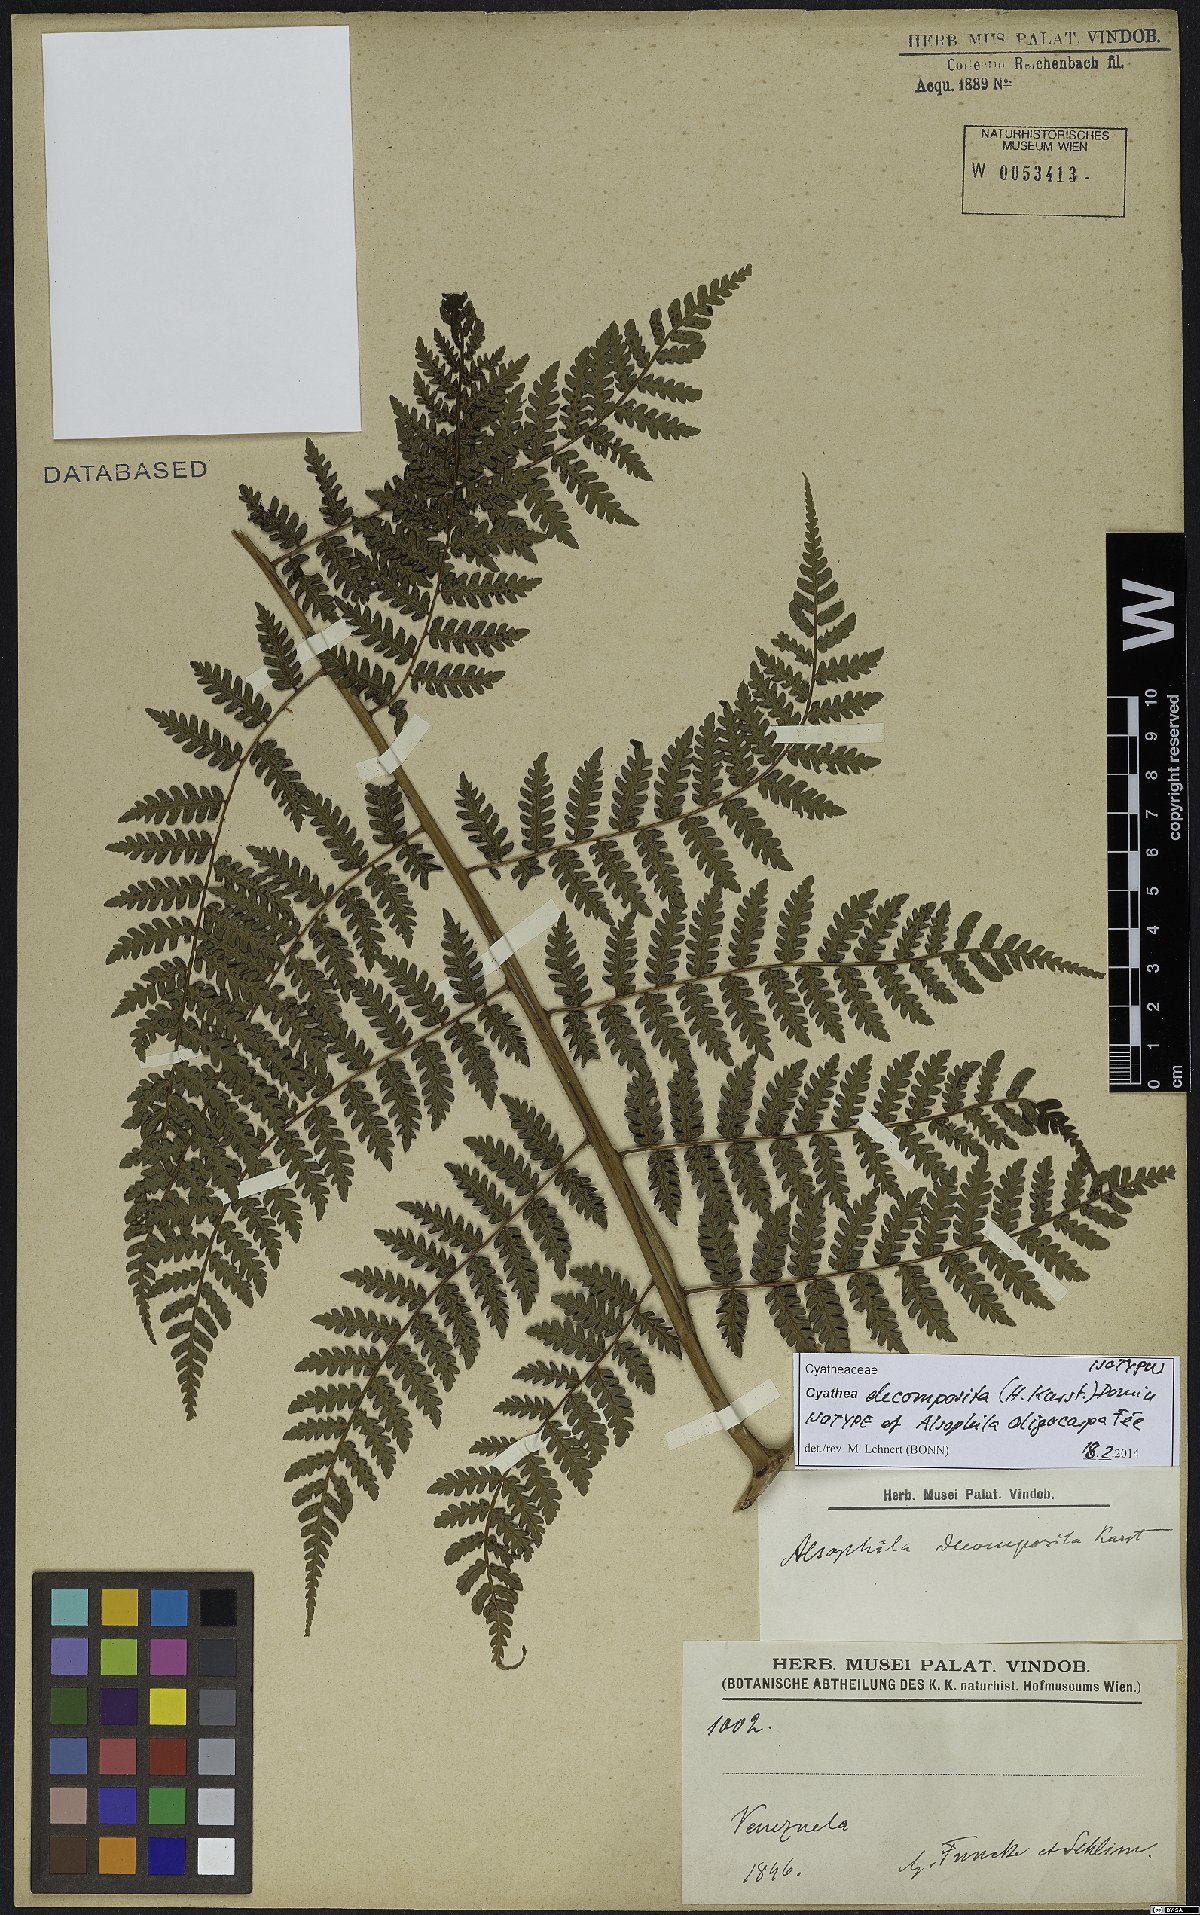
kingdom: Plantae
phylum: Tracheophyta
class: Polypodiopsida
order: Cyatheales
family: Cyatheaceae
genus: Cyathea
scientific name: Cyathea decomposita
